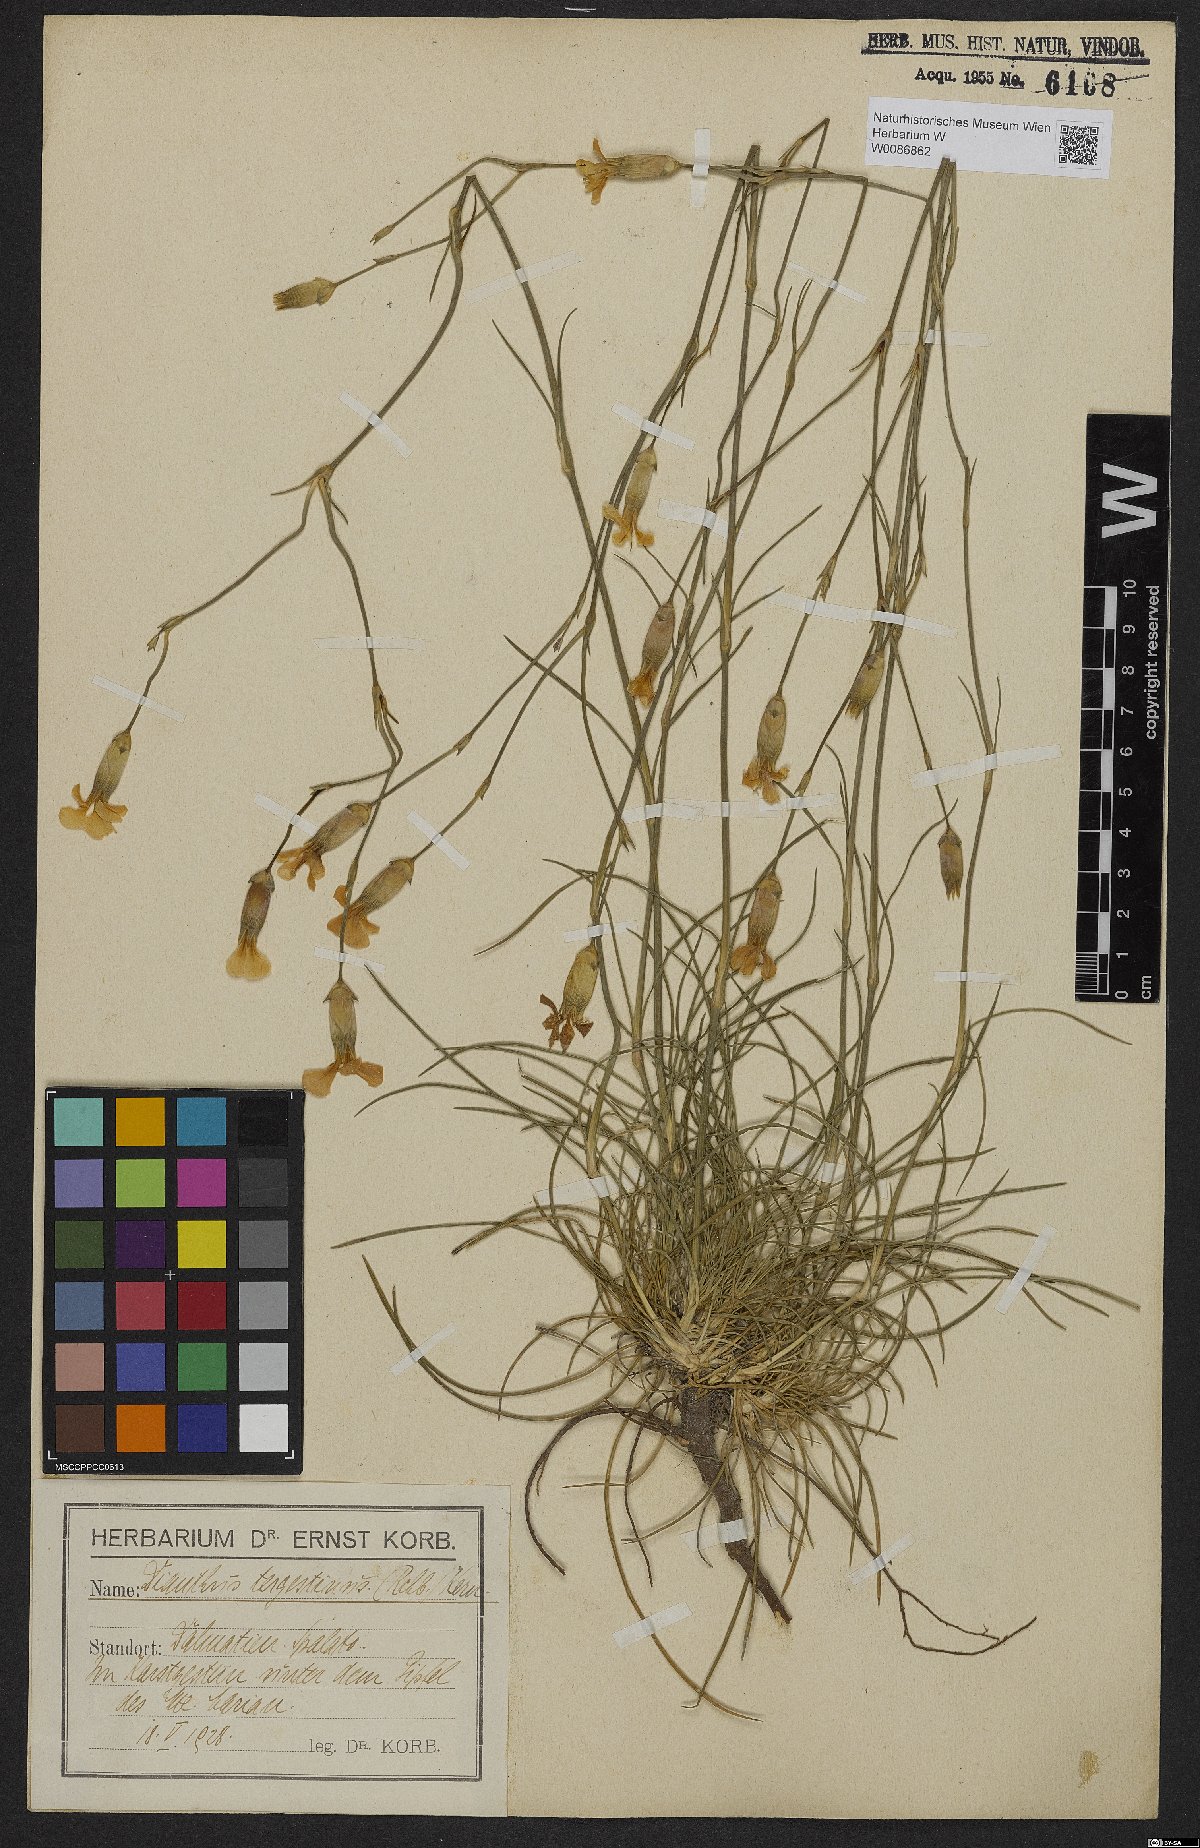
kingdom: Plantae
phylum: Tracheophyta
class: Magnoliopsida
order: Caryophyllales
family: Caryophyllaceae
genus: Dianthus
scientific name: Dianthus sylvestris
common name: Wood pink
